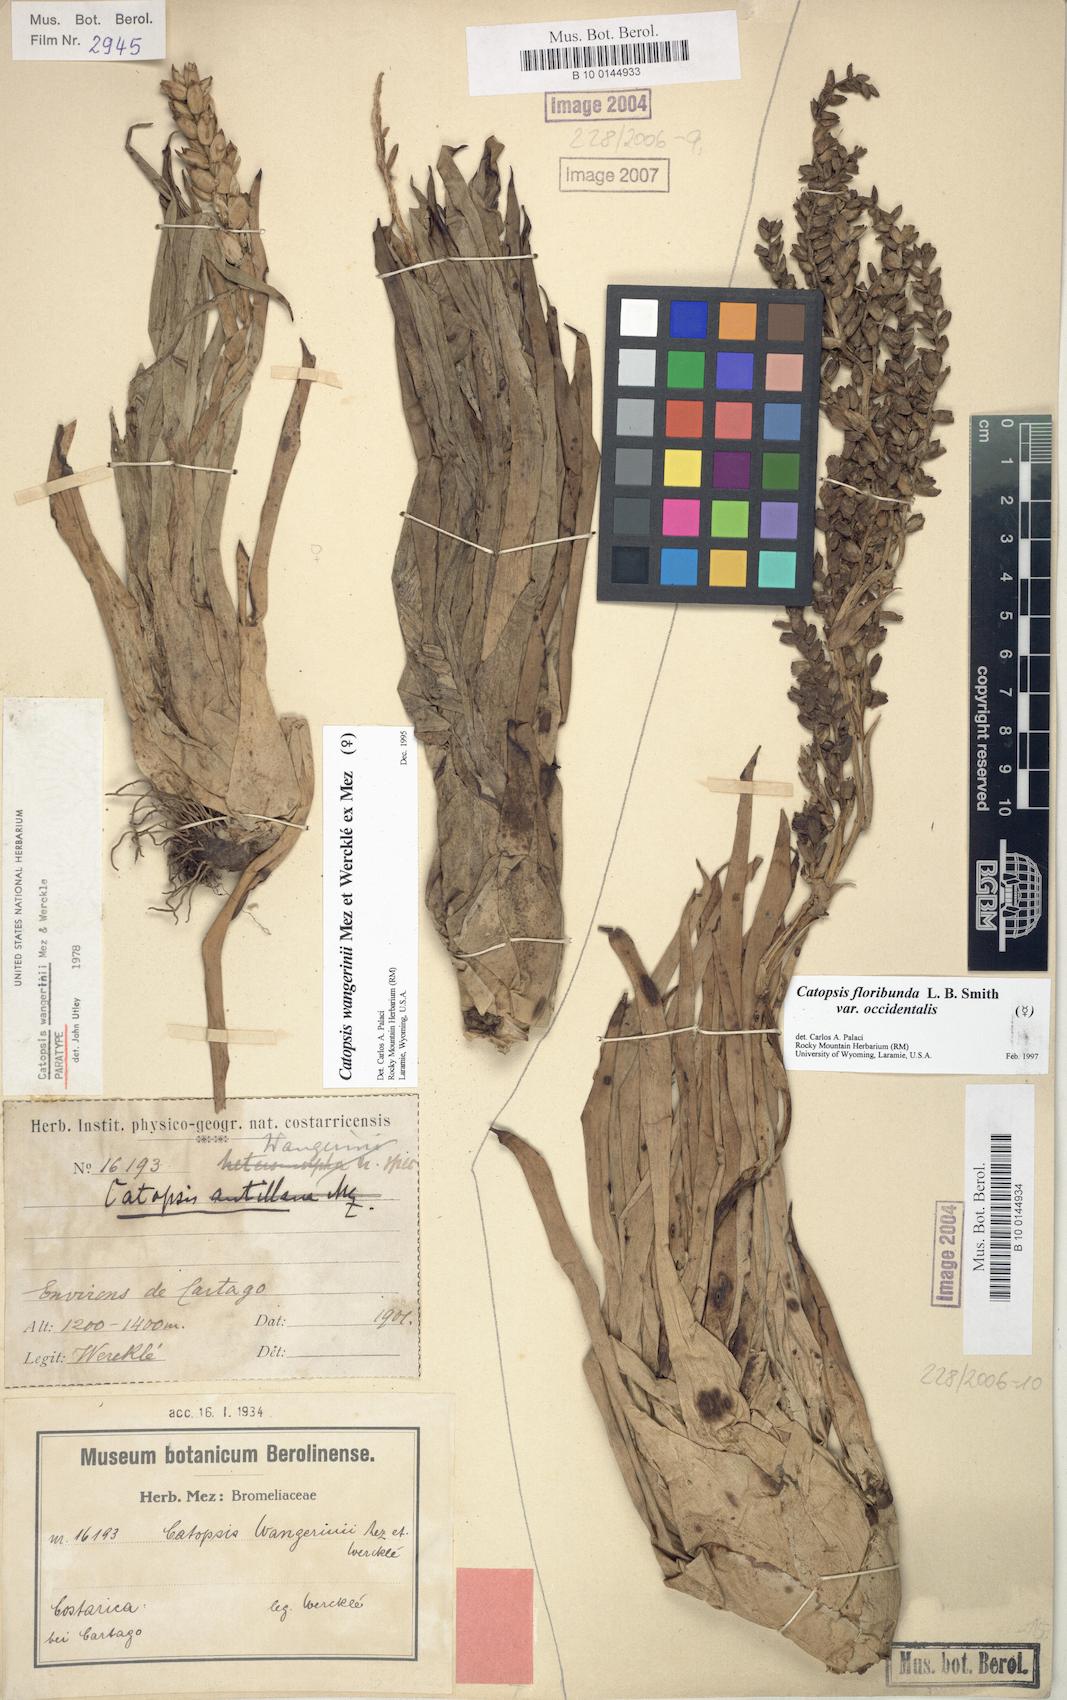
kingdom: Plantae
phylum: Tracheophyta
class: Liliopsida
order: Poales
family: Bromeliaceae
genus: Catopsis
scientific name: Catopsis wangerinii
